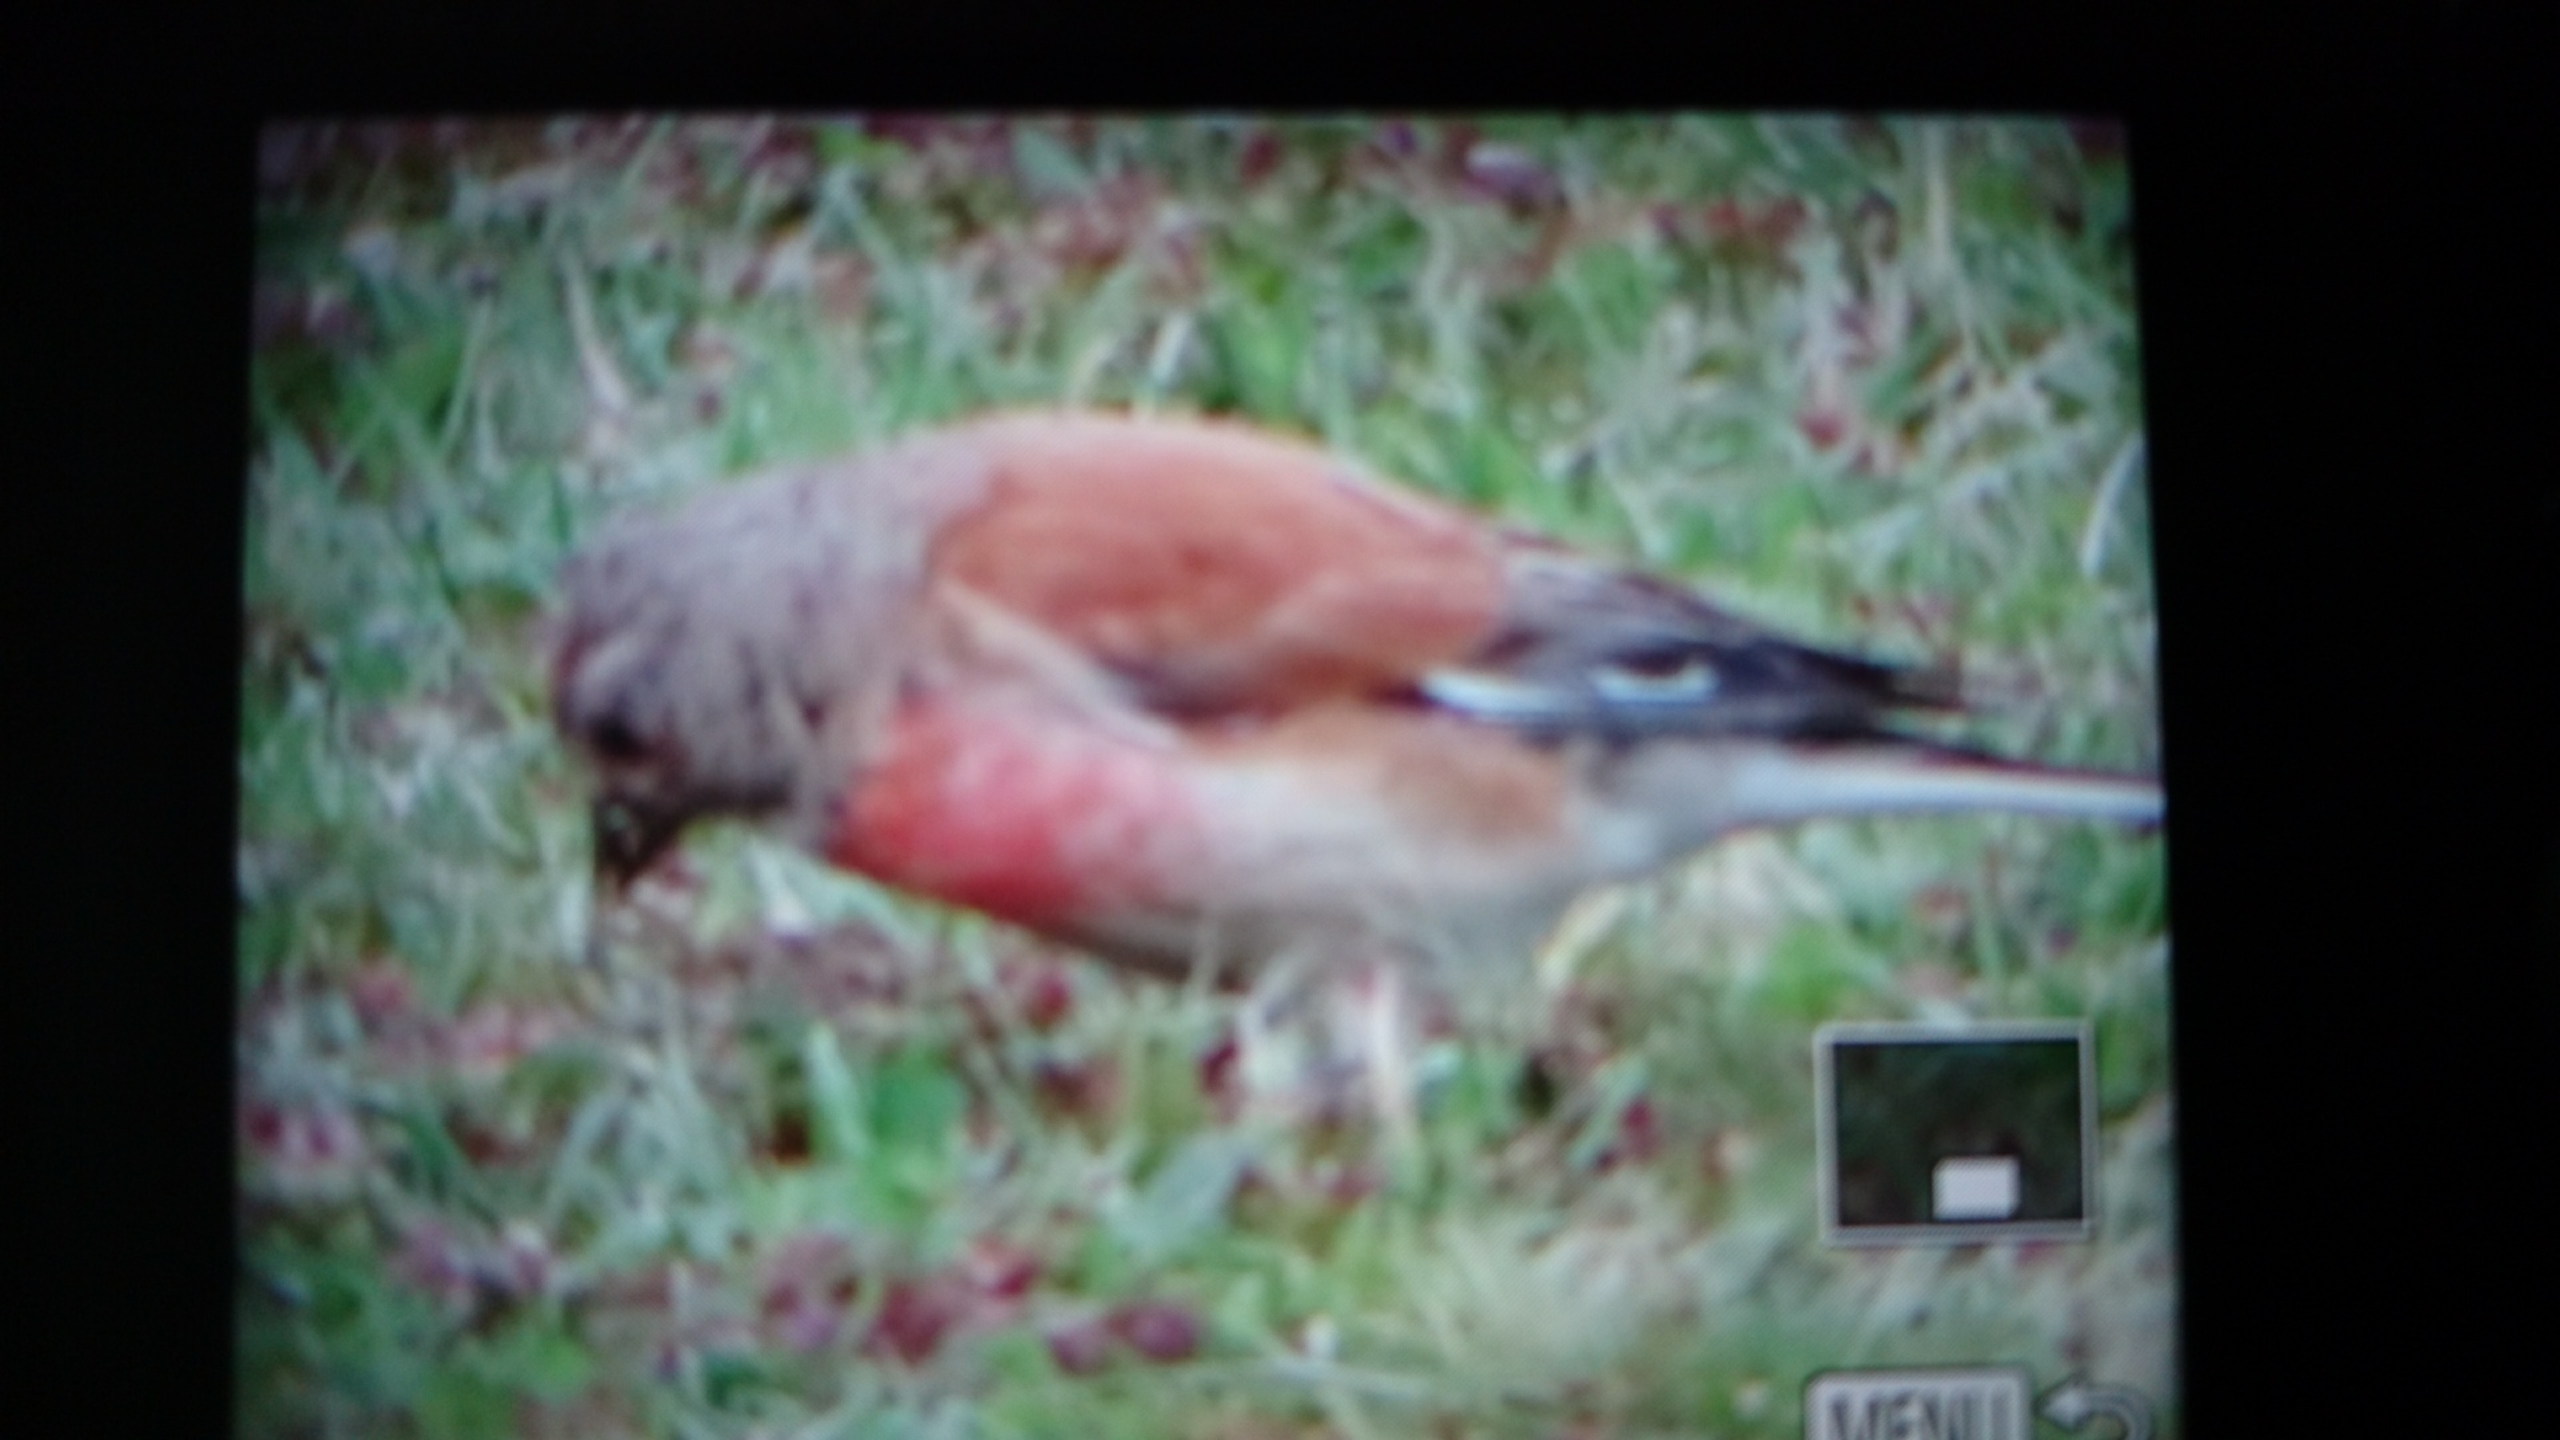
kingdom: Animalia
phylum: Chordata
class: Aves
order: Passeriformes
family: Fringillidae
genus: Linaria
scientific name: Linaria cannabina
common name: Tornirisk
